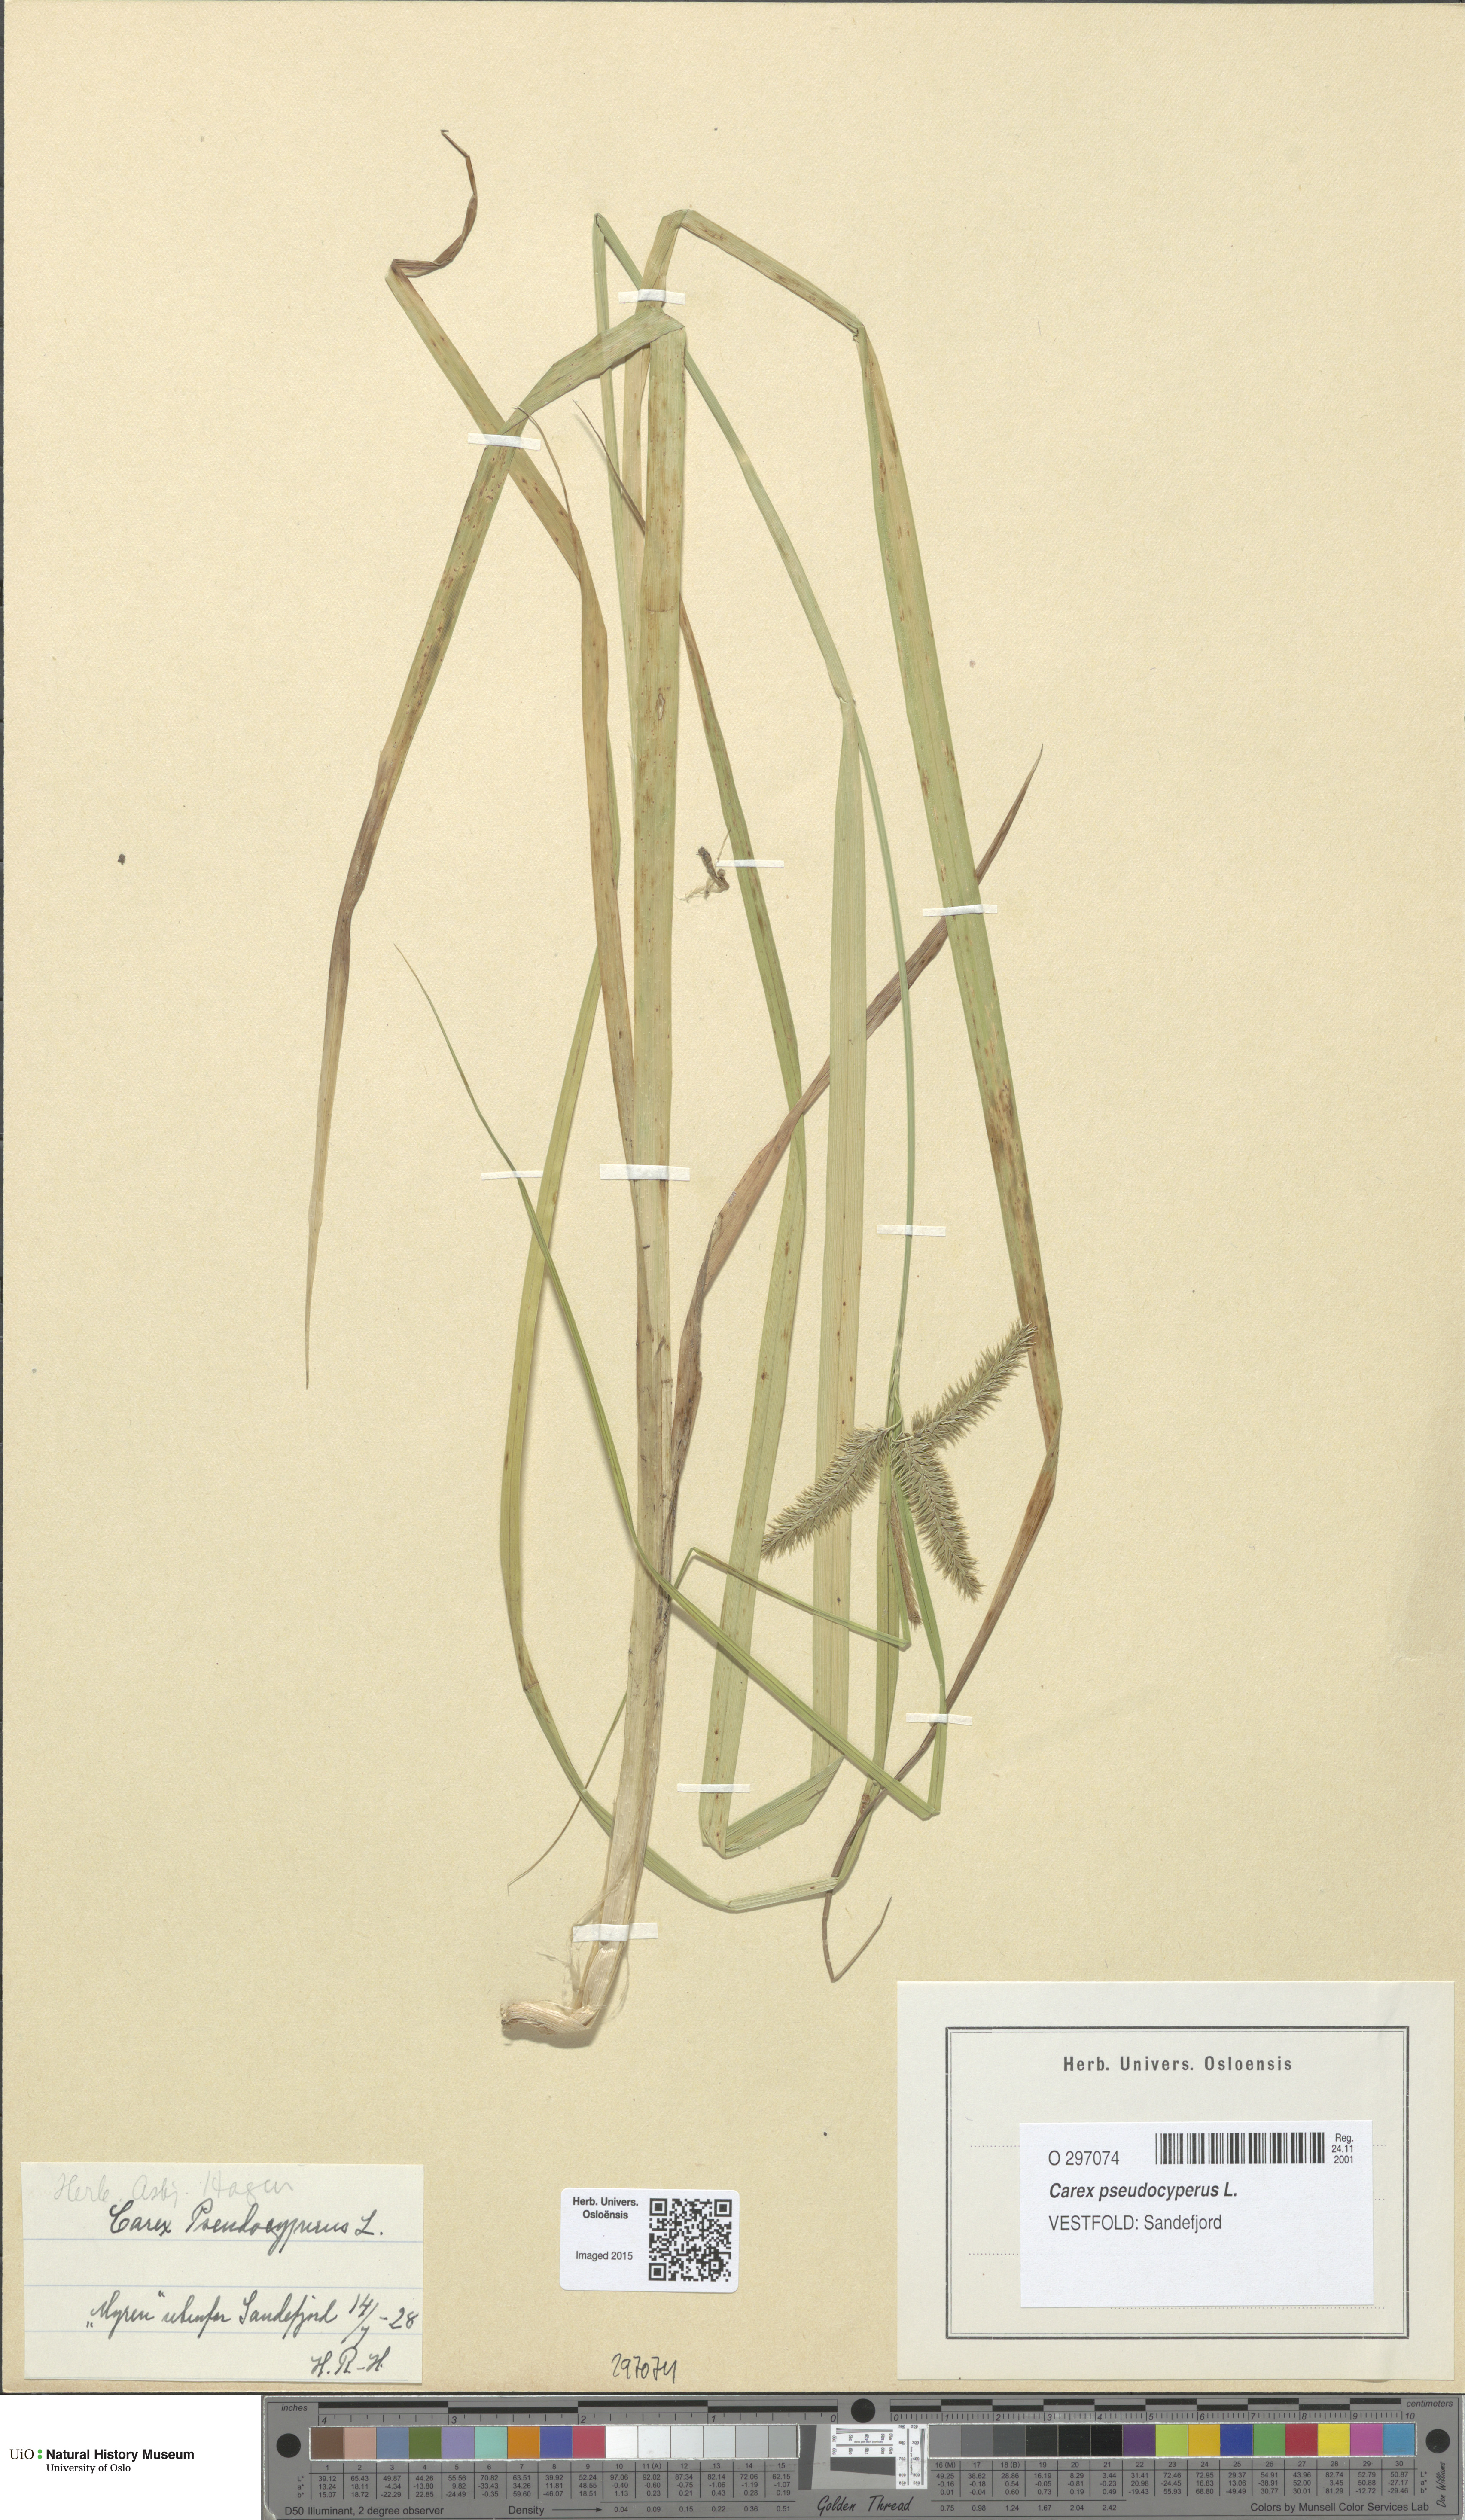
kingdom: Plantae
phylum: Tracheophyta
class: Liliopsida
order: Poales
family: Cyperaceae
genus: Carex
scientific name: Carex pseudocyperus
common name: Cyperus sedge
